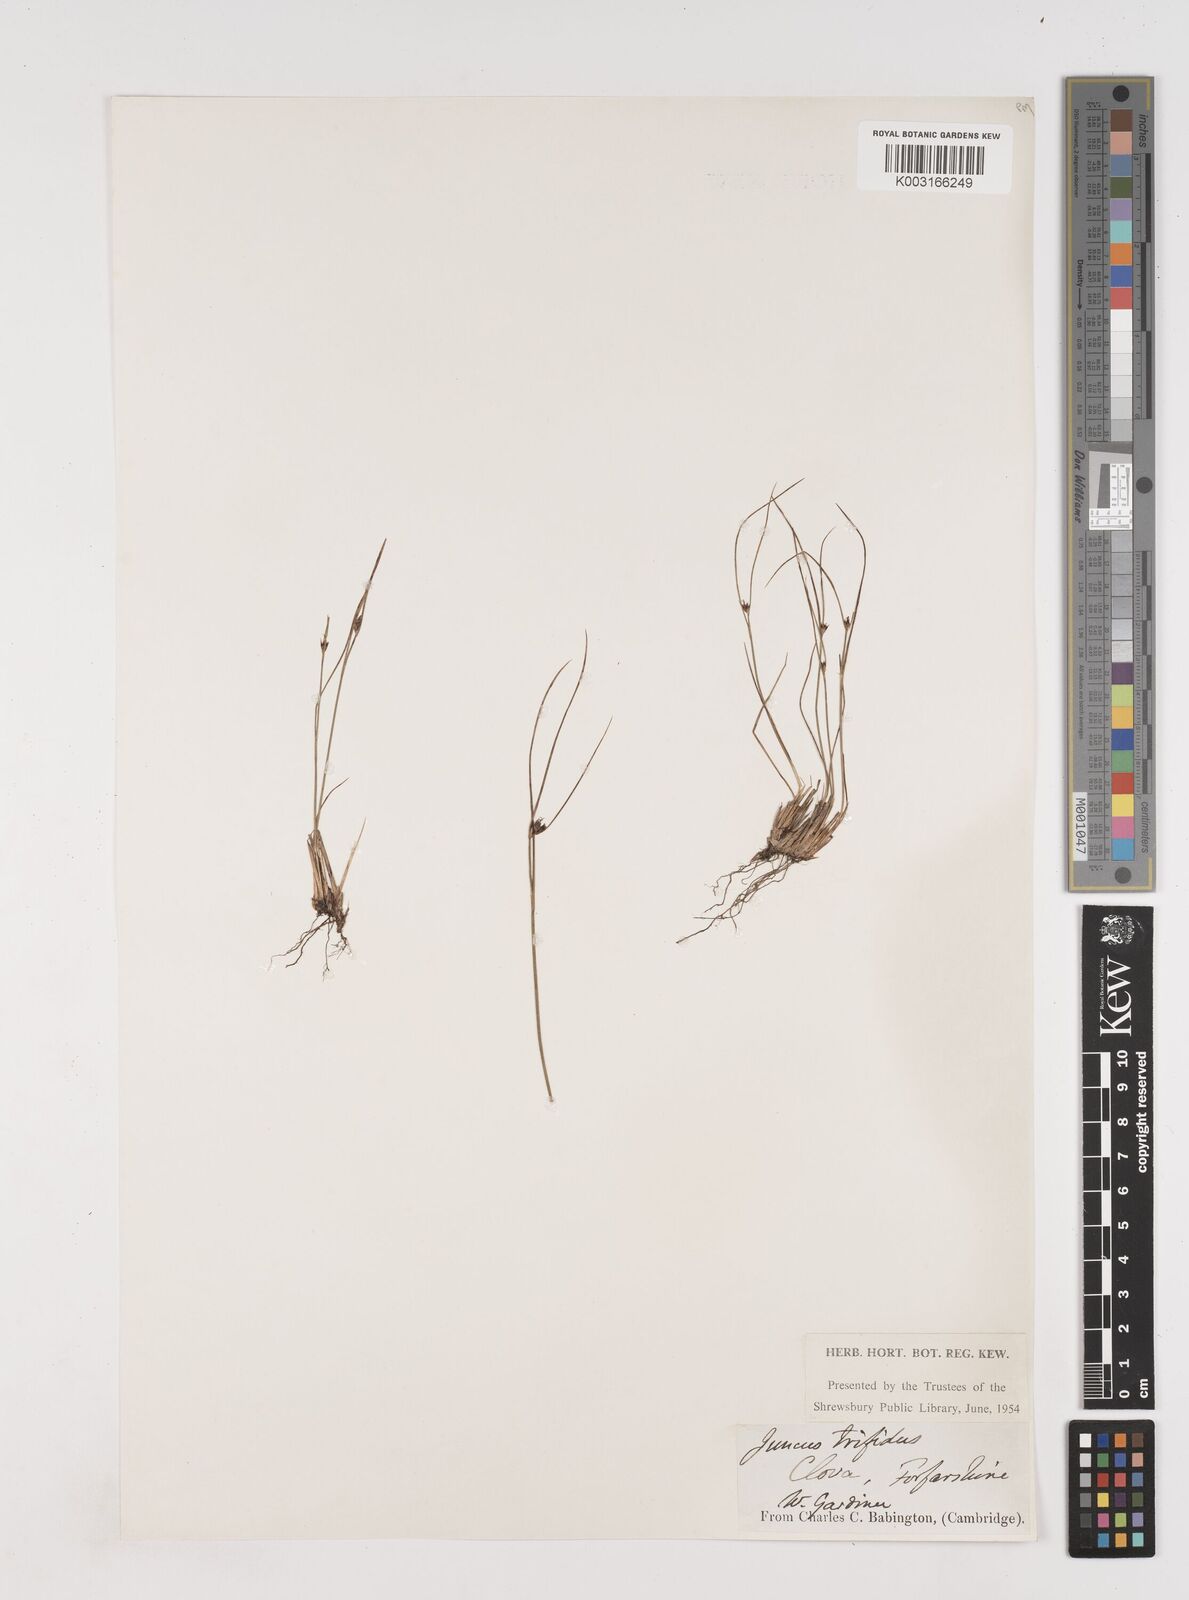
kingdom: Plantae
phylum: Tracheophyta
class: Liliopsida
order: Poales
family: Juncaceae
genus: Oreojuncus
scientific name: Oreojuncus trifidus
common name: Highland rush
